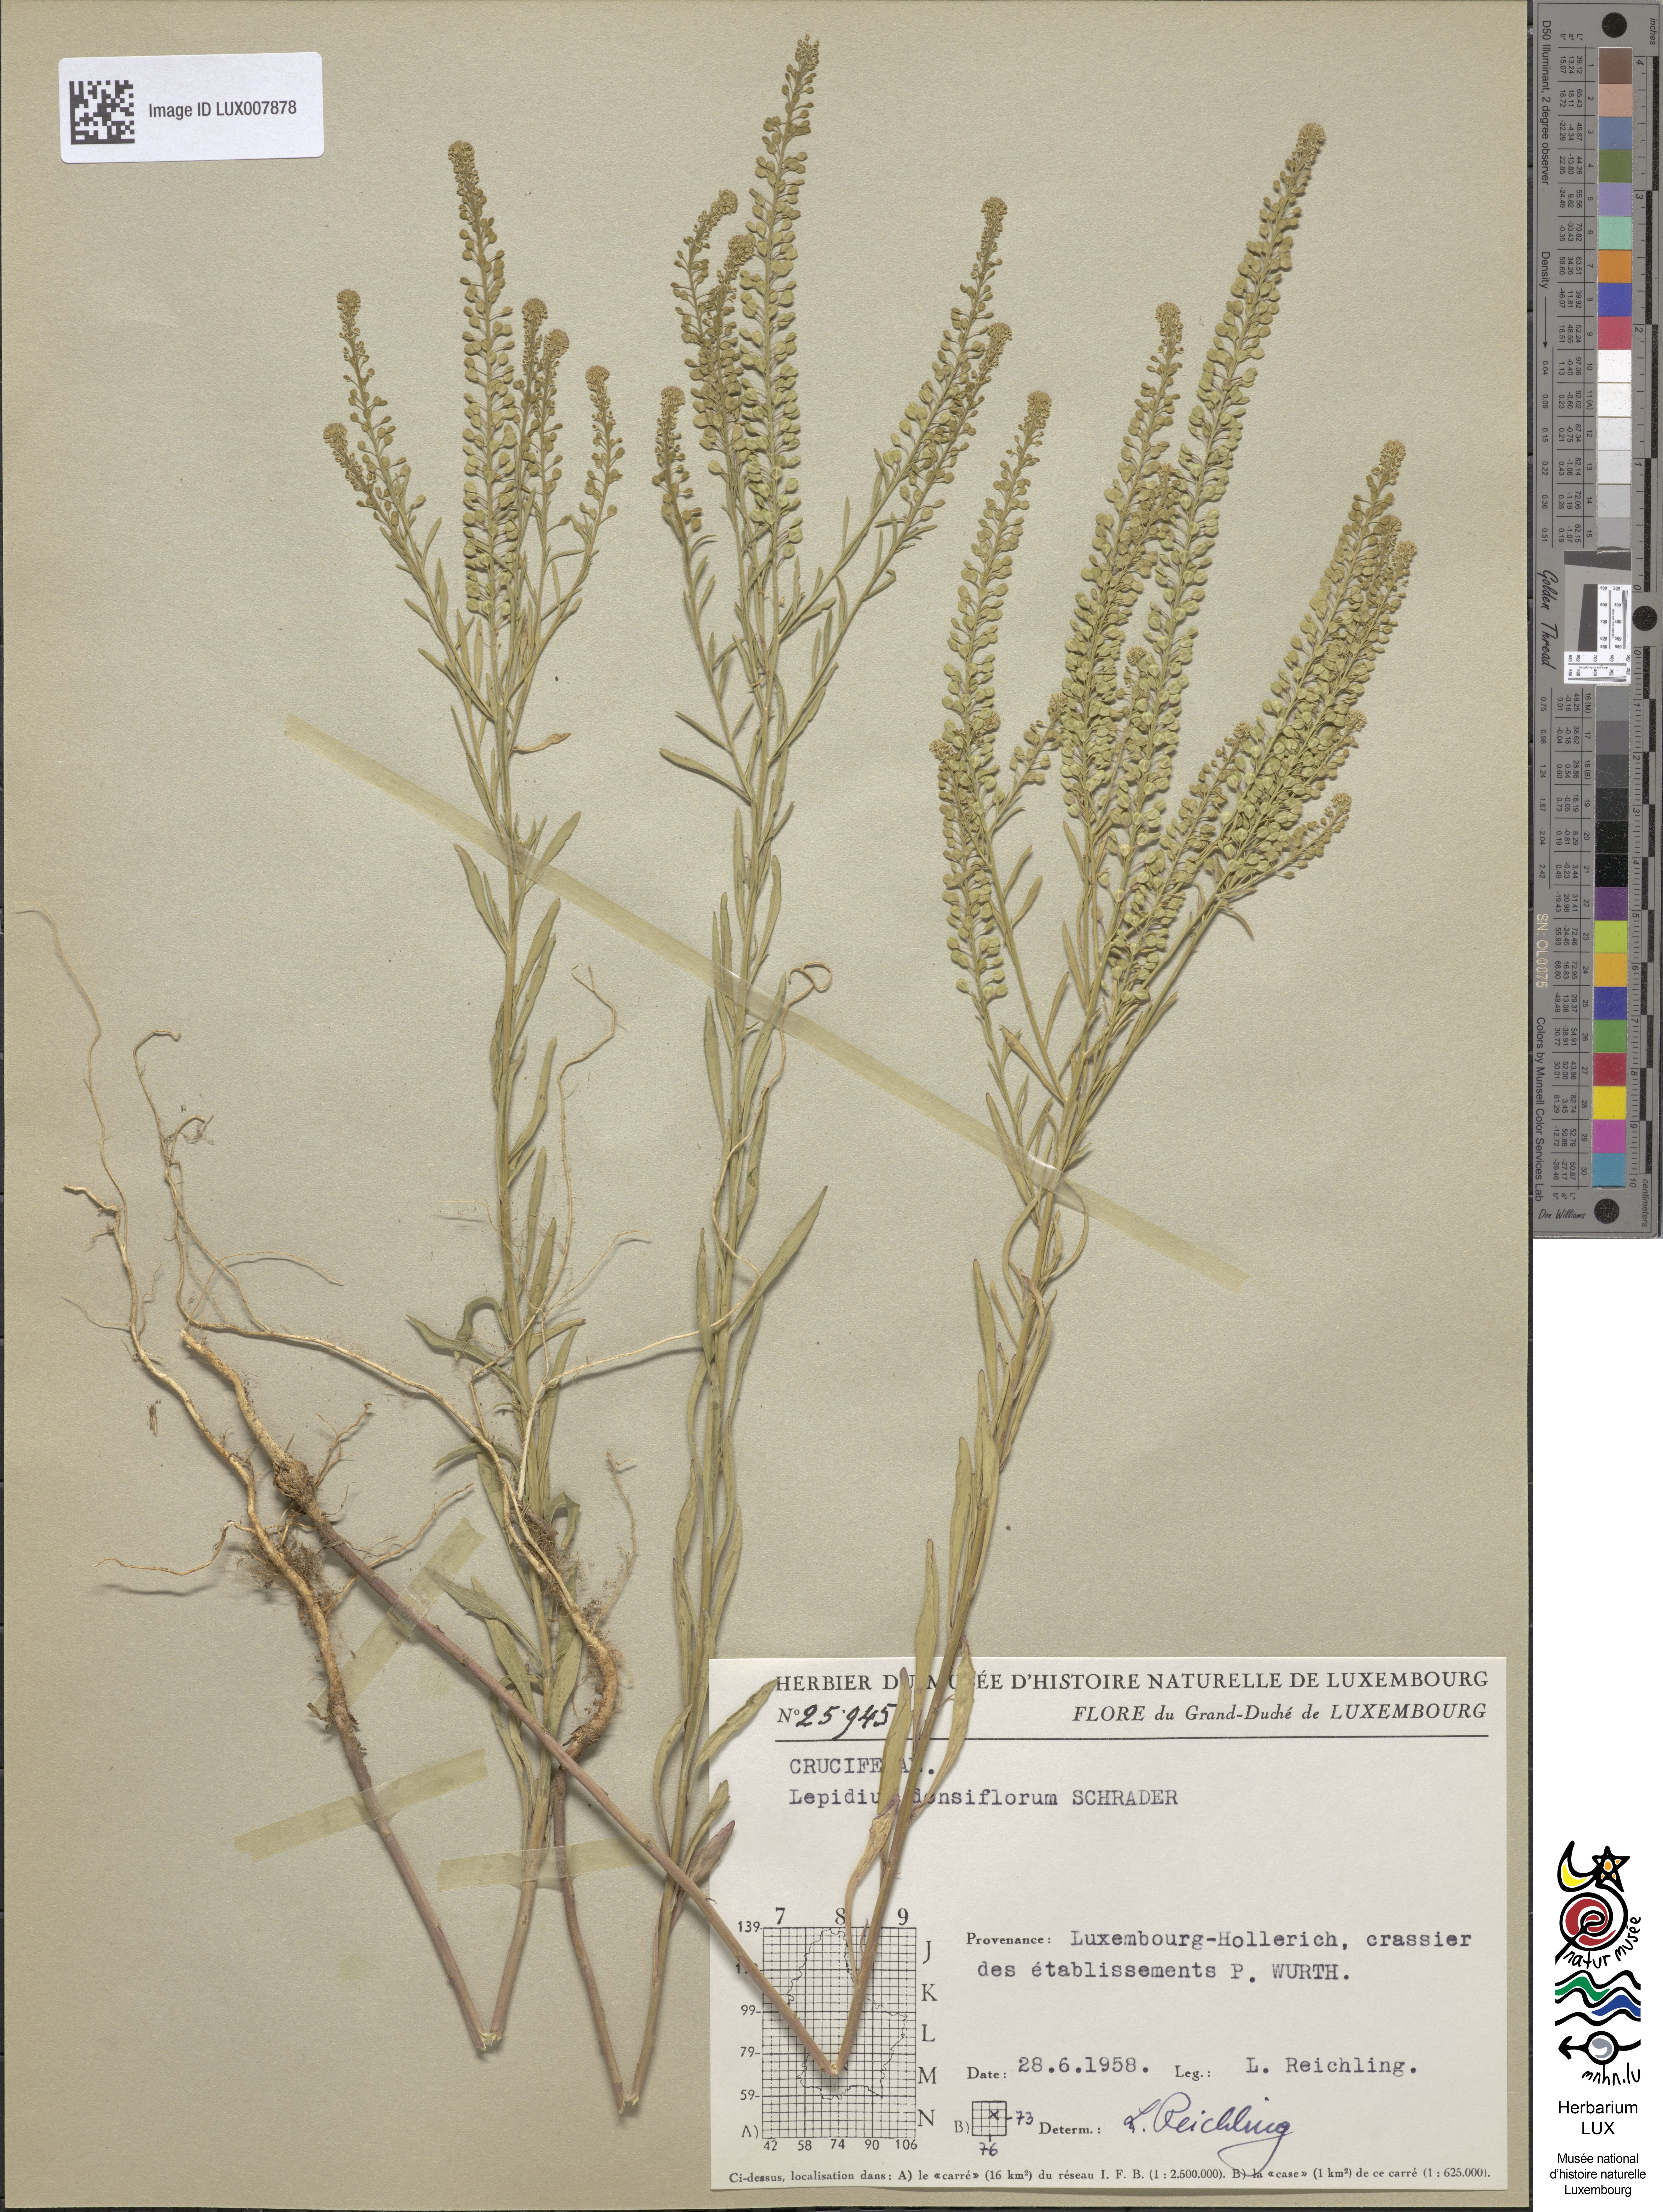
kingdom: Plantae
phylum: Tracheophyta
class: Magnoliopsida
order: Brassicales
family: Brassicaceae
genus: Lepidium
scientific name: Lepidium densiflorum
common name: Miner's pepperwort
